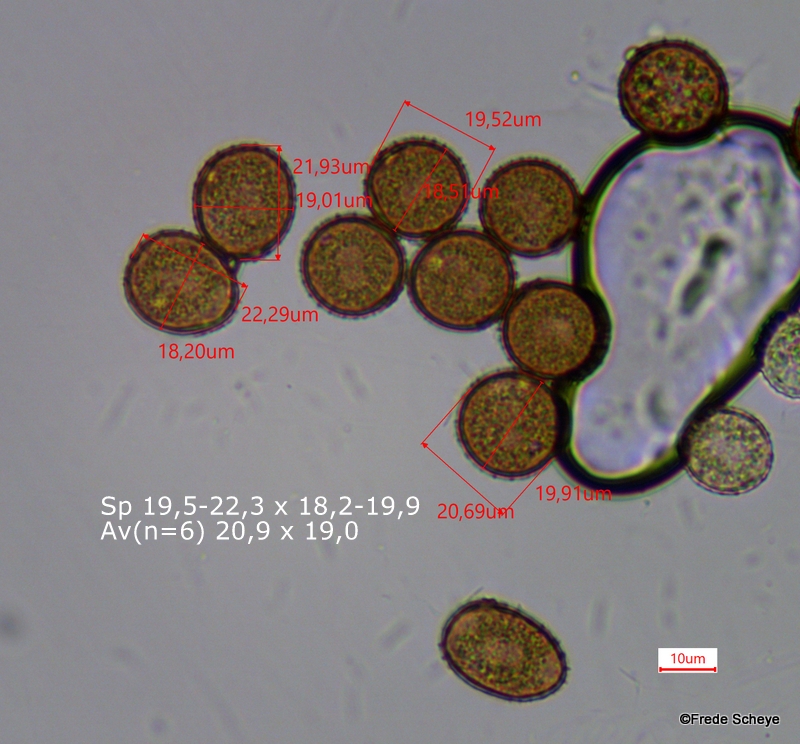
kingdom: Fungi
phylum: Basidiomycota
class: Pucciniomycetes
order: Pucciniales
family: Pucciniaceae
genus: Puccinia
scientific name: Puccinia lapsanae
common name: Nipplewort rust
